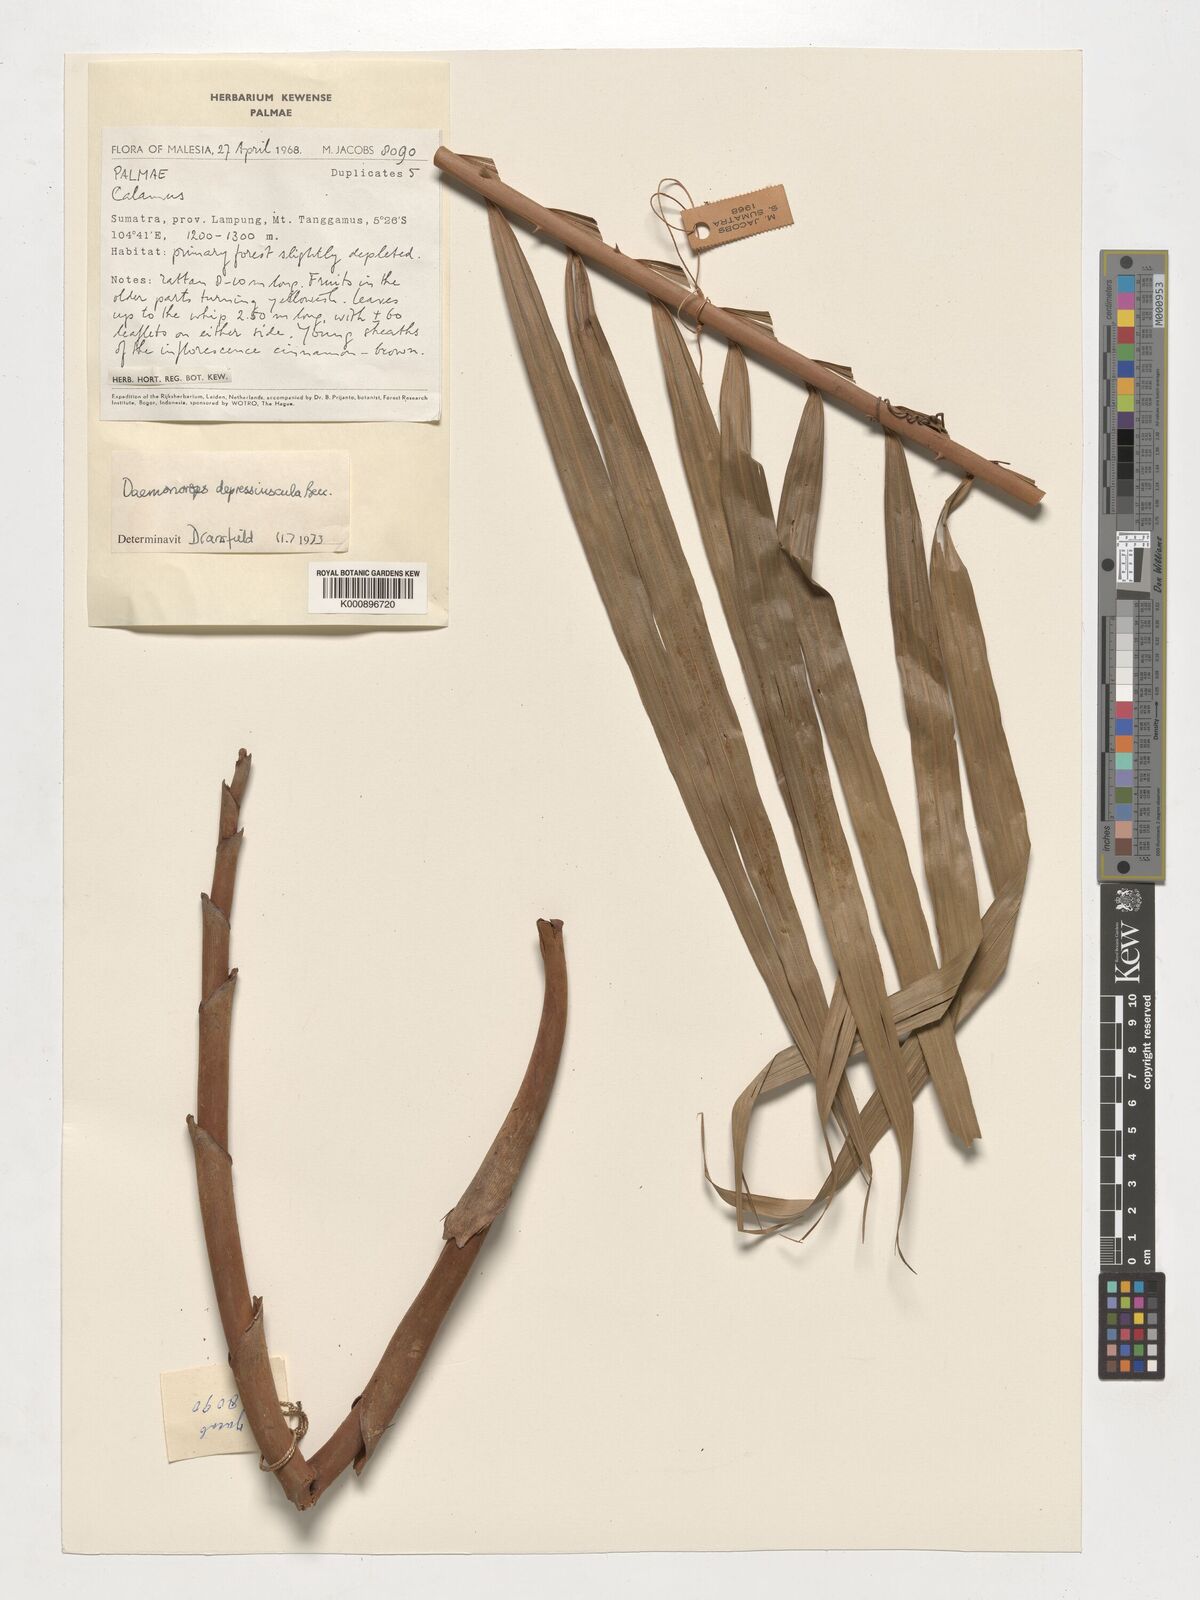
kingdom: Plantae
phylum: Tracheophyta
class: Liliopsida
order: Arecales
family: Arecaceae
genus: Daemonorops
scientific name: Daemonorops
